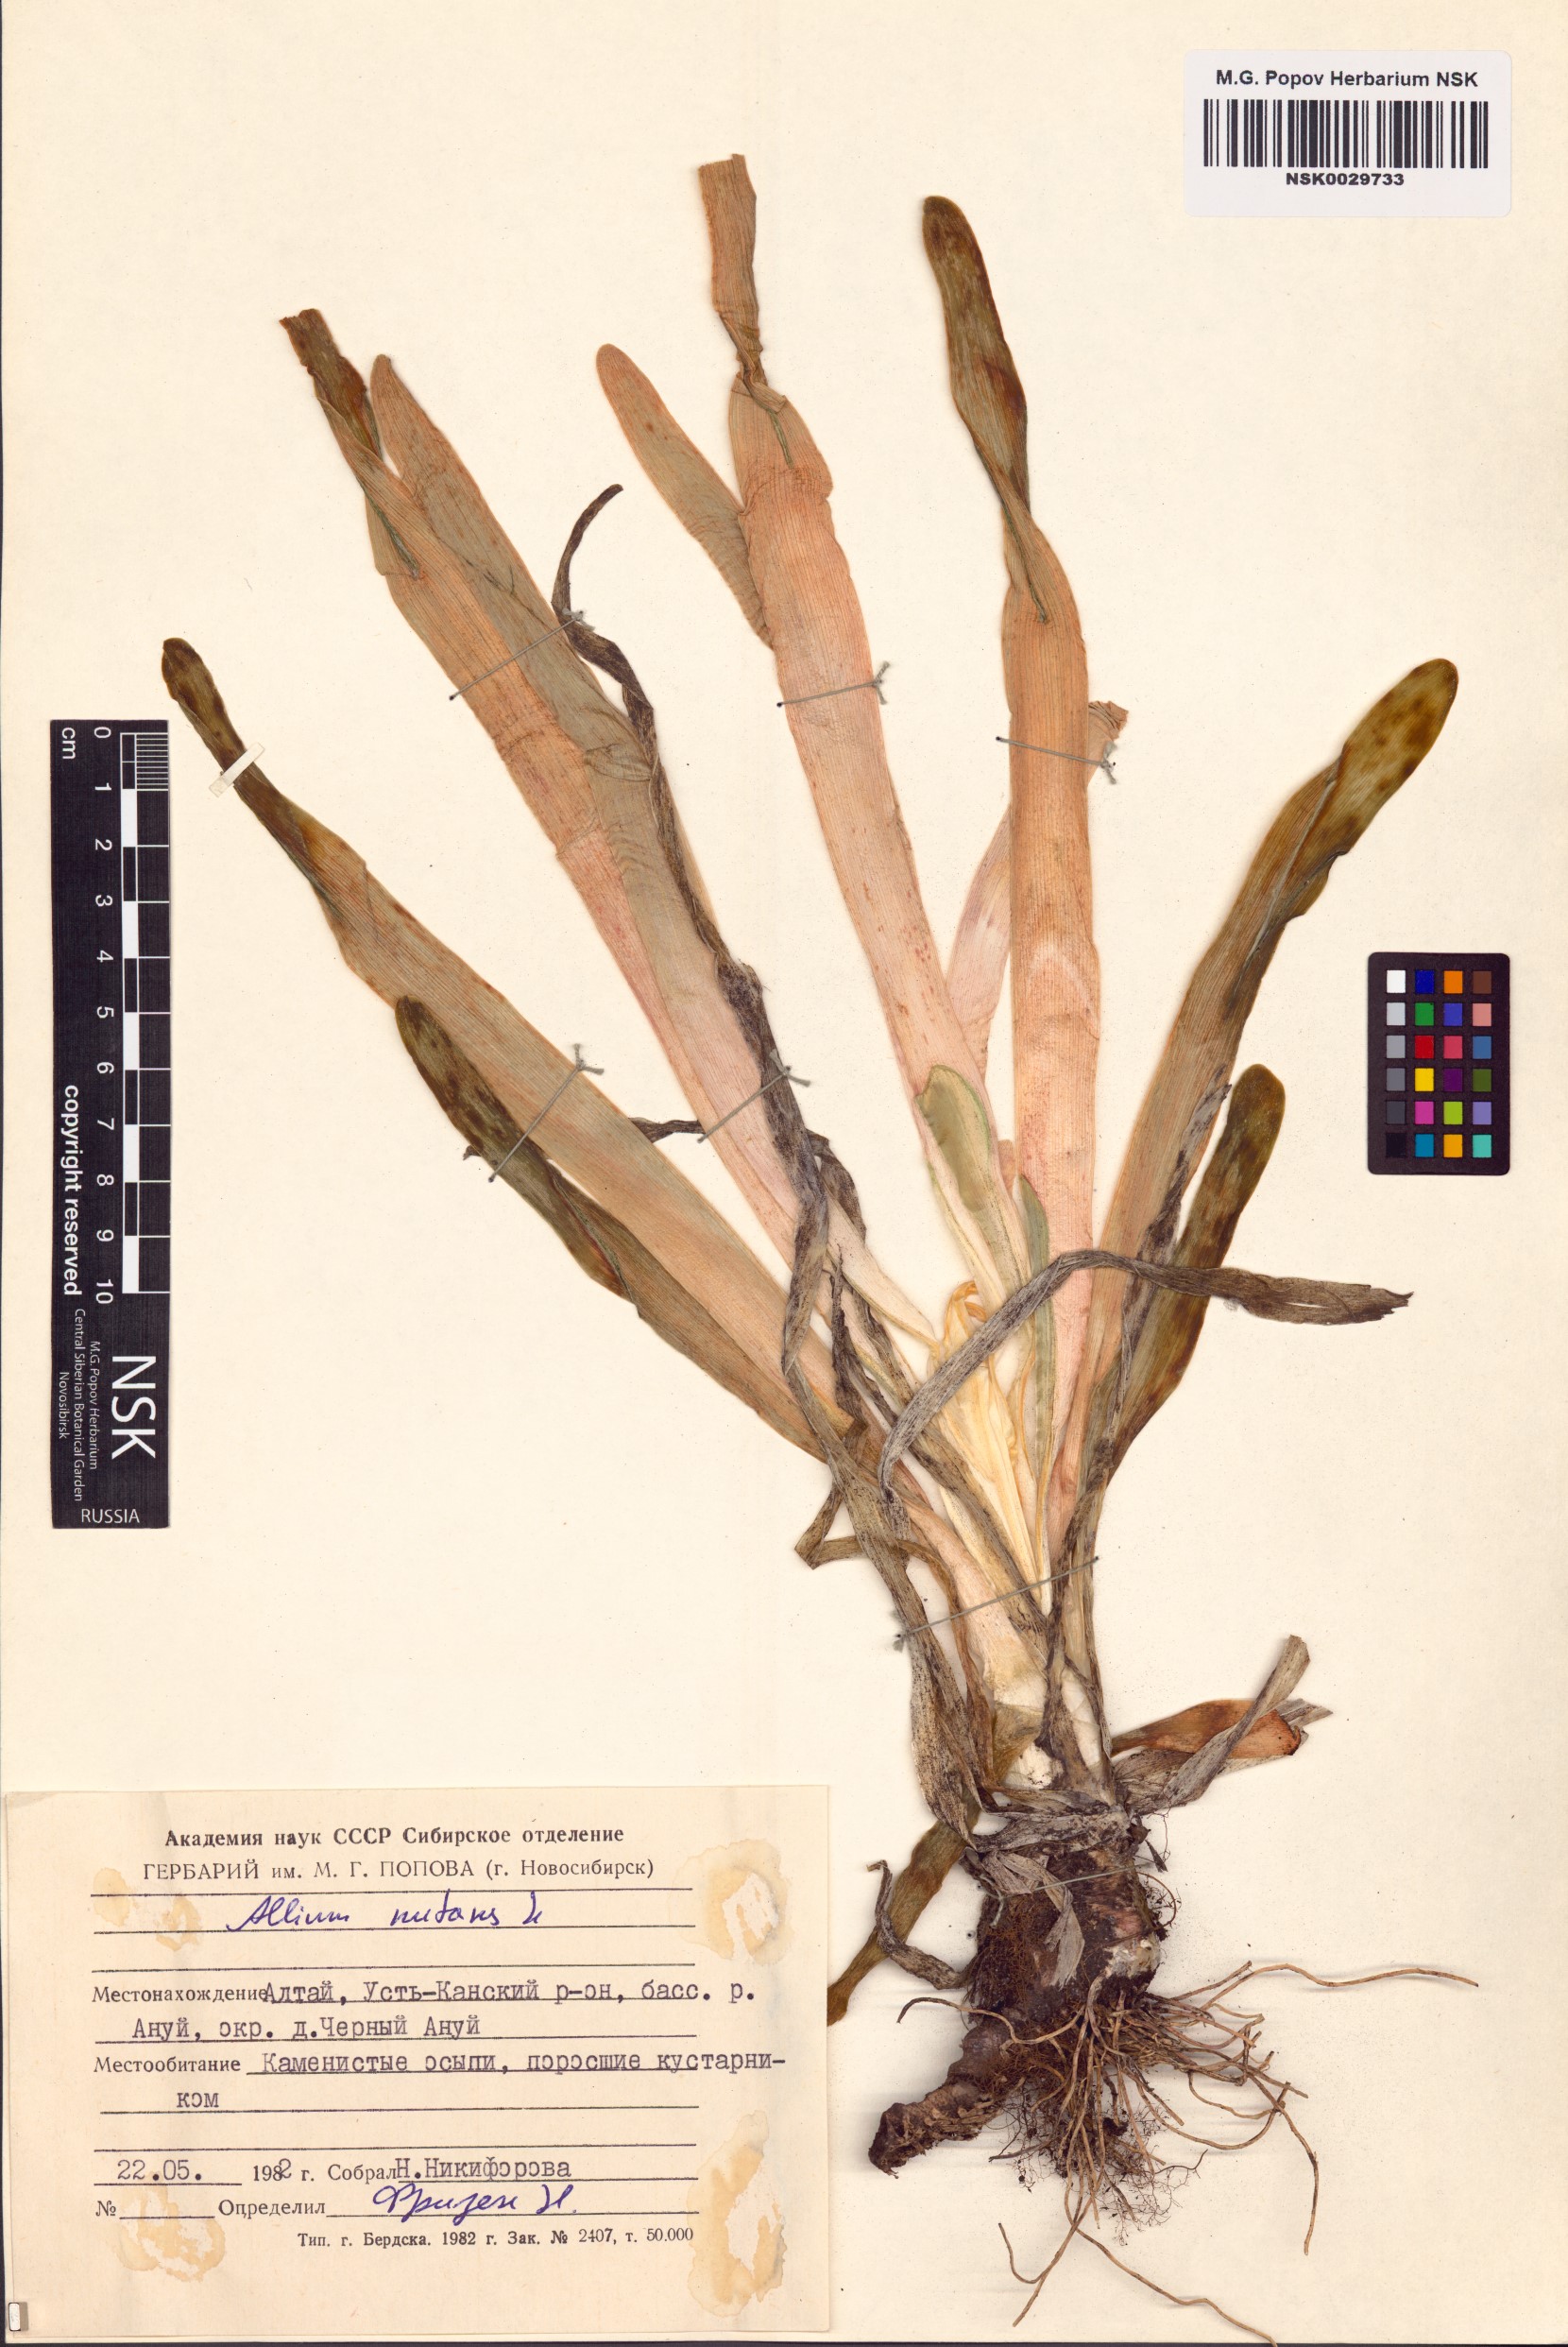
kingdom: Plantae
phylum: Tracheophyta
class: Liliopsida
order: Asparagales
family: Amaryllidaceae
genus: Allium
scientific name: Allium nutans
